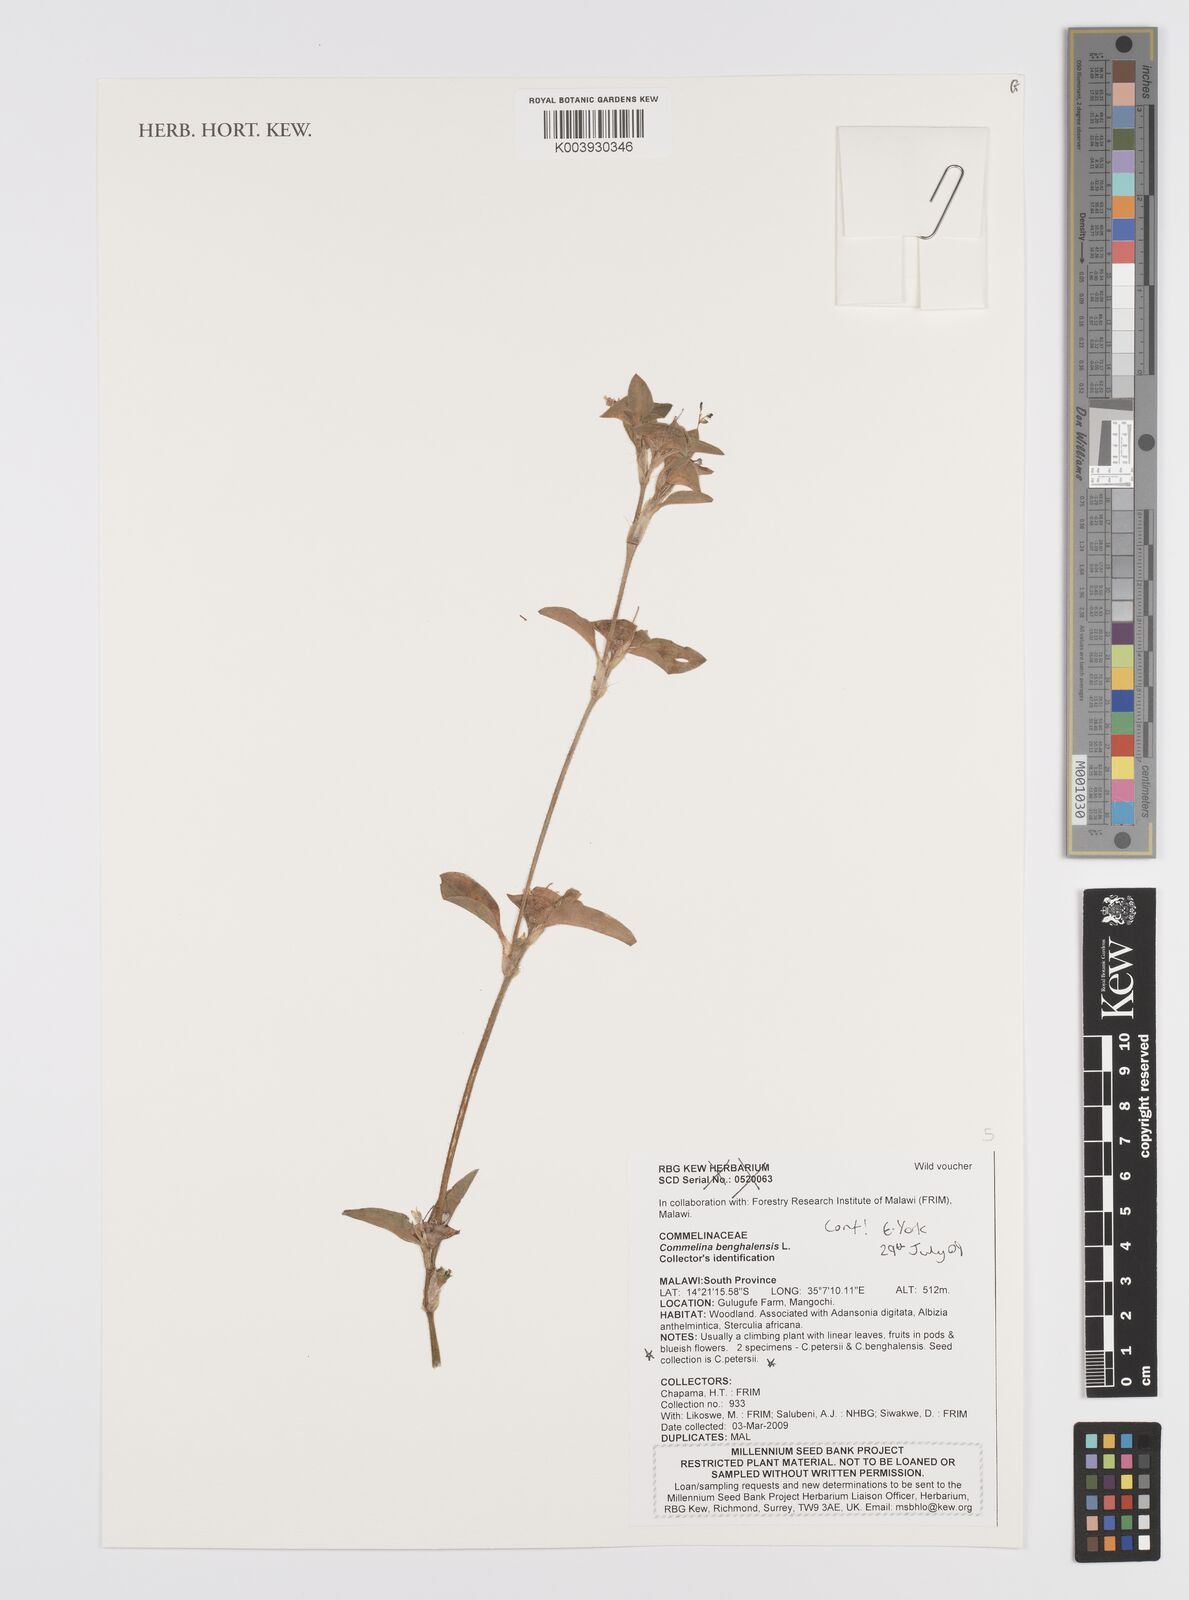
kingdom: Plantae
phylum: Tracheophyta
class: Liliopsida
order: Commelinales
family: Commelinaceae
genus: Commelina
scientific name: Commelina benghalensis
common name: Jio
